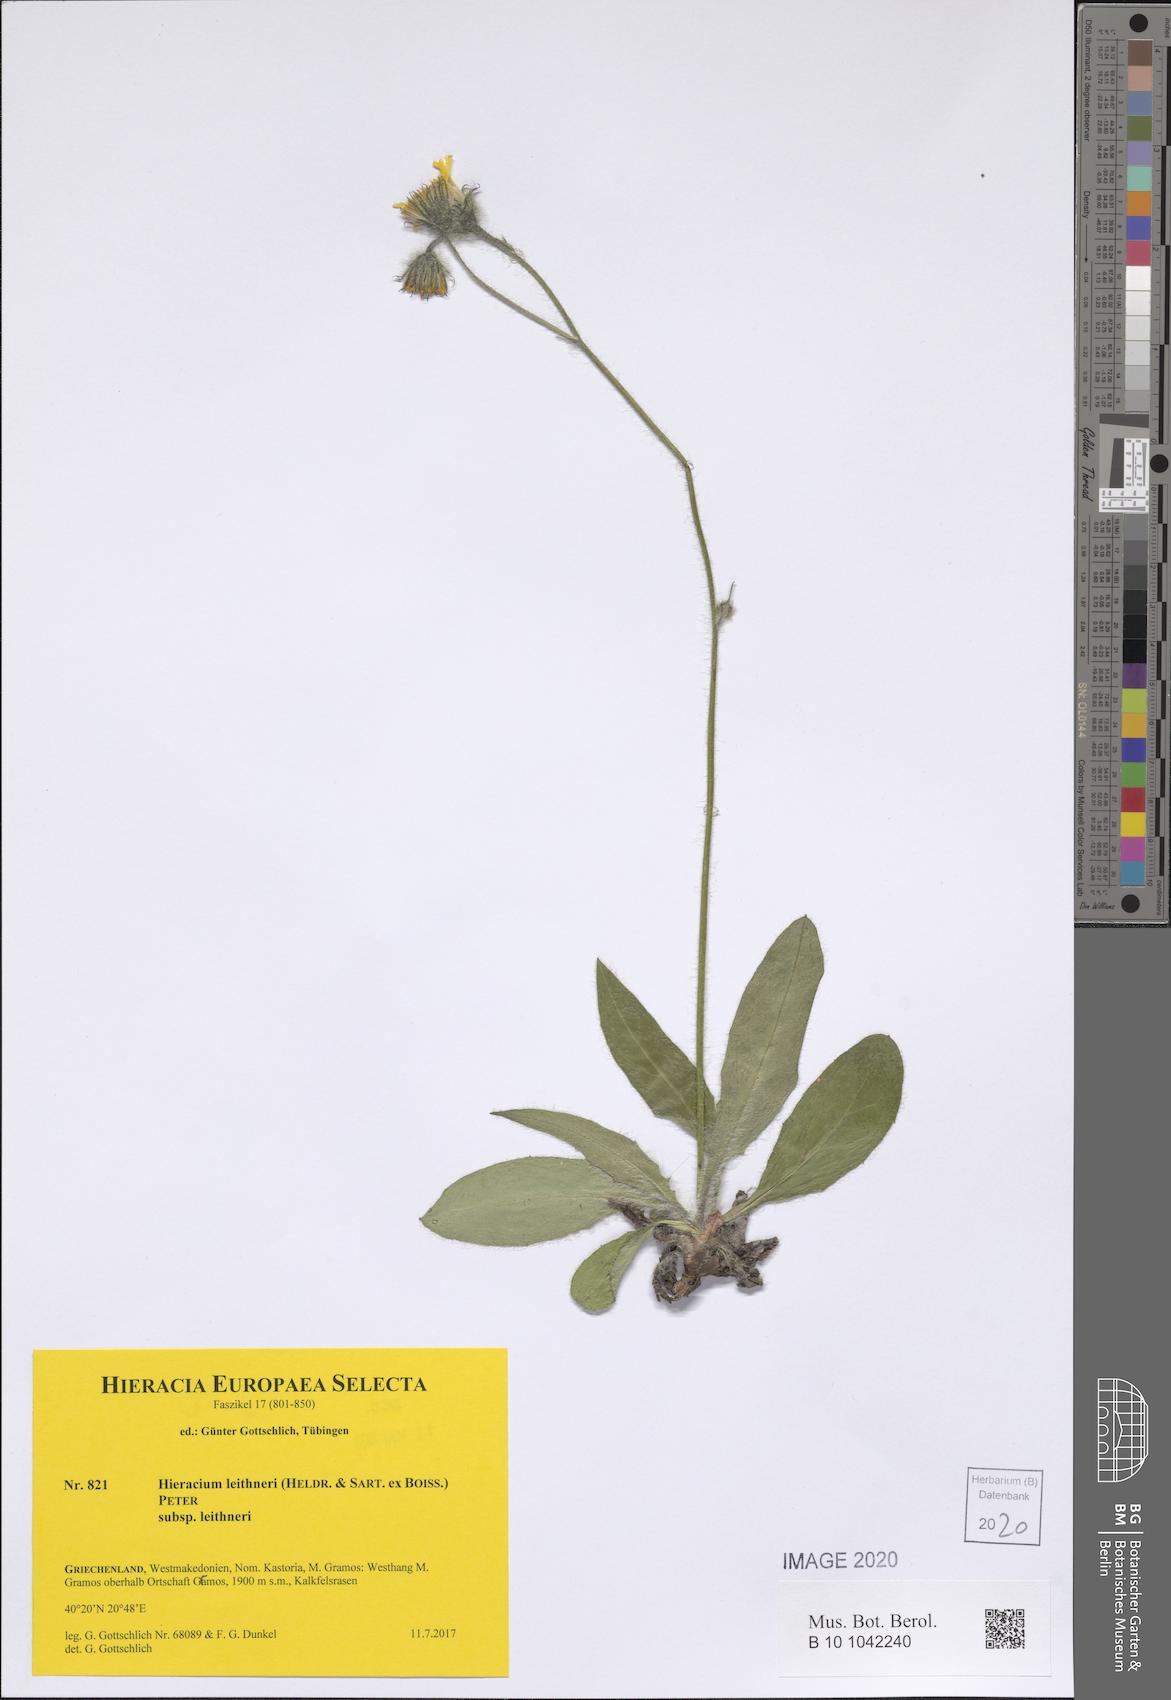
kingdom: Plantae
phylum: Tracheophyta
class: Magnoliopsida
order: Asterales
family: Asteraceae
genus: Hieracium
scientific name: Hieracium lazistanum
